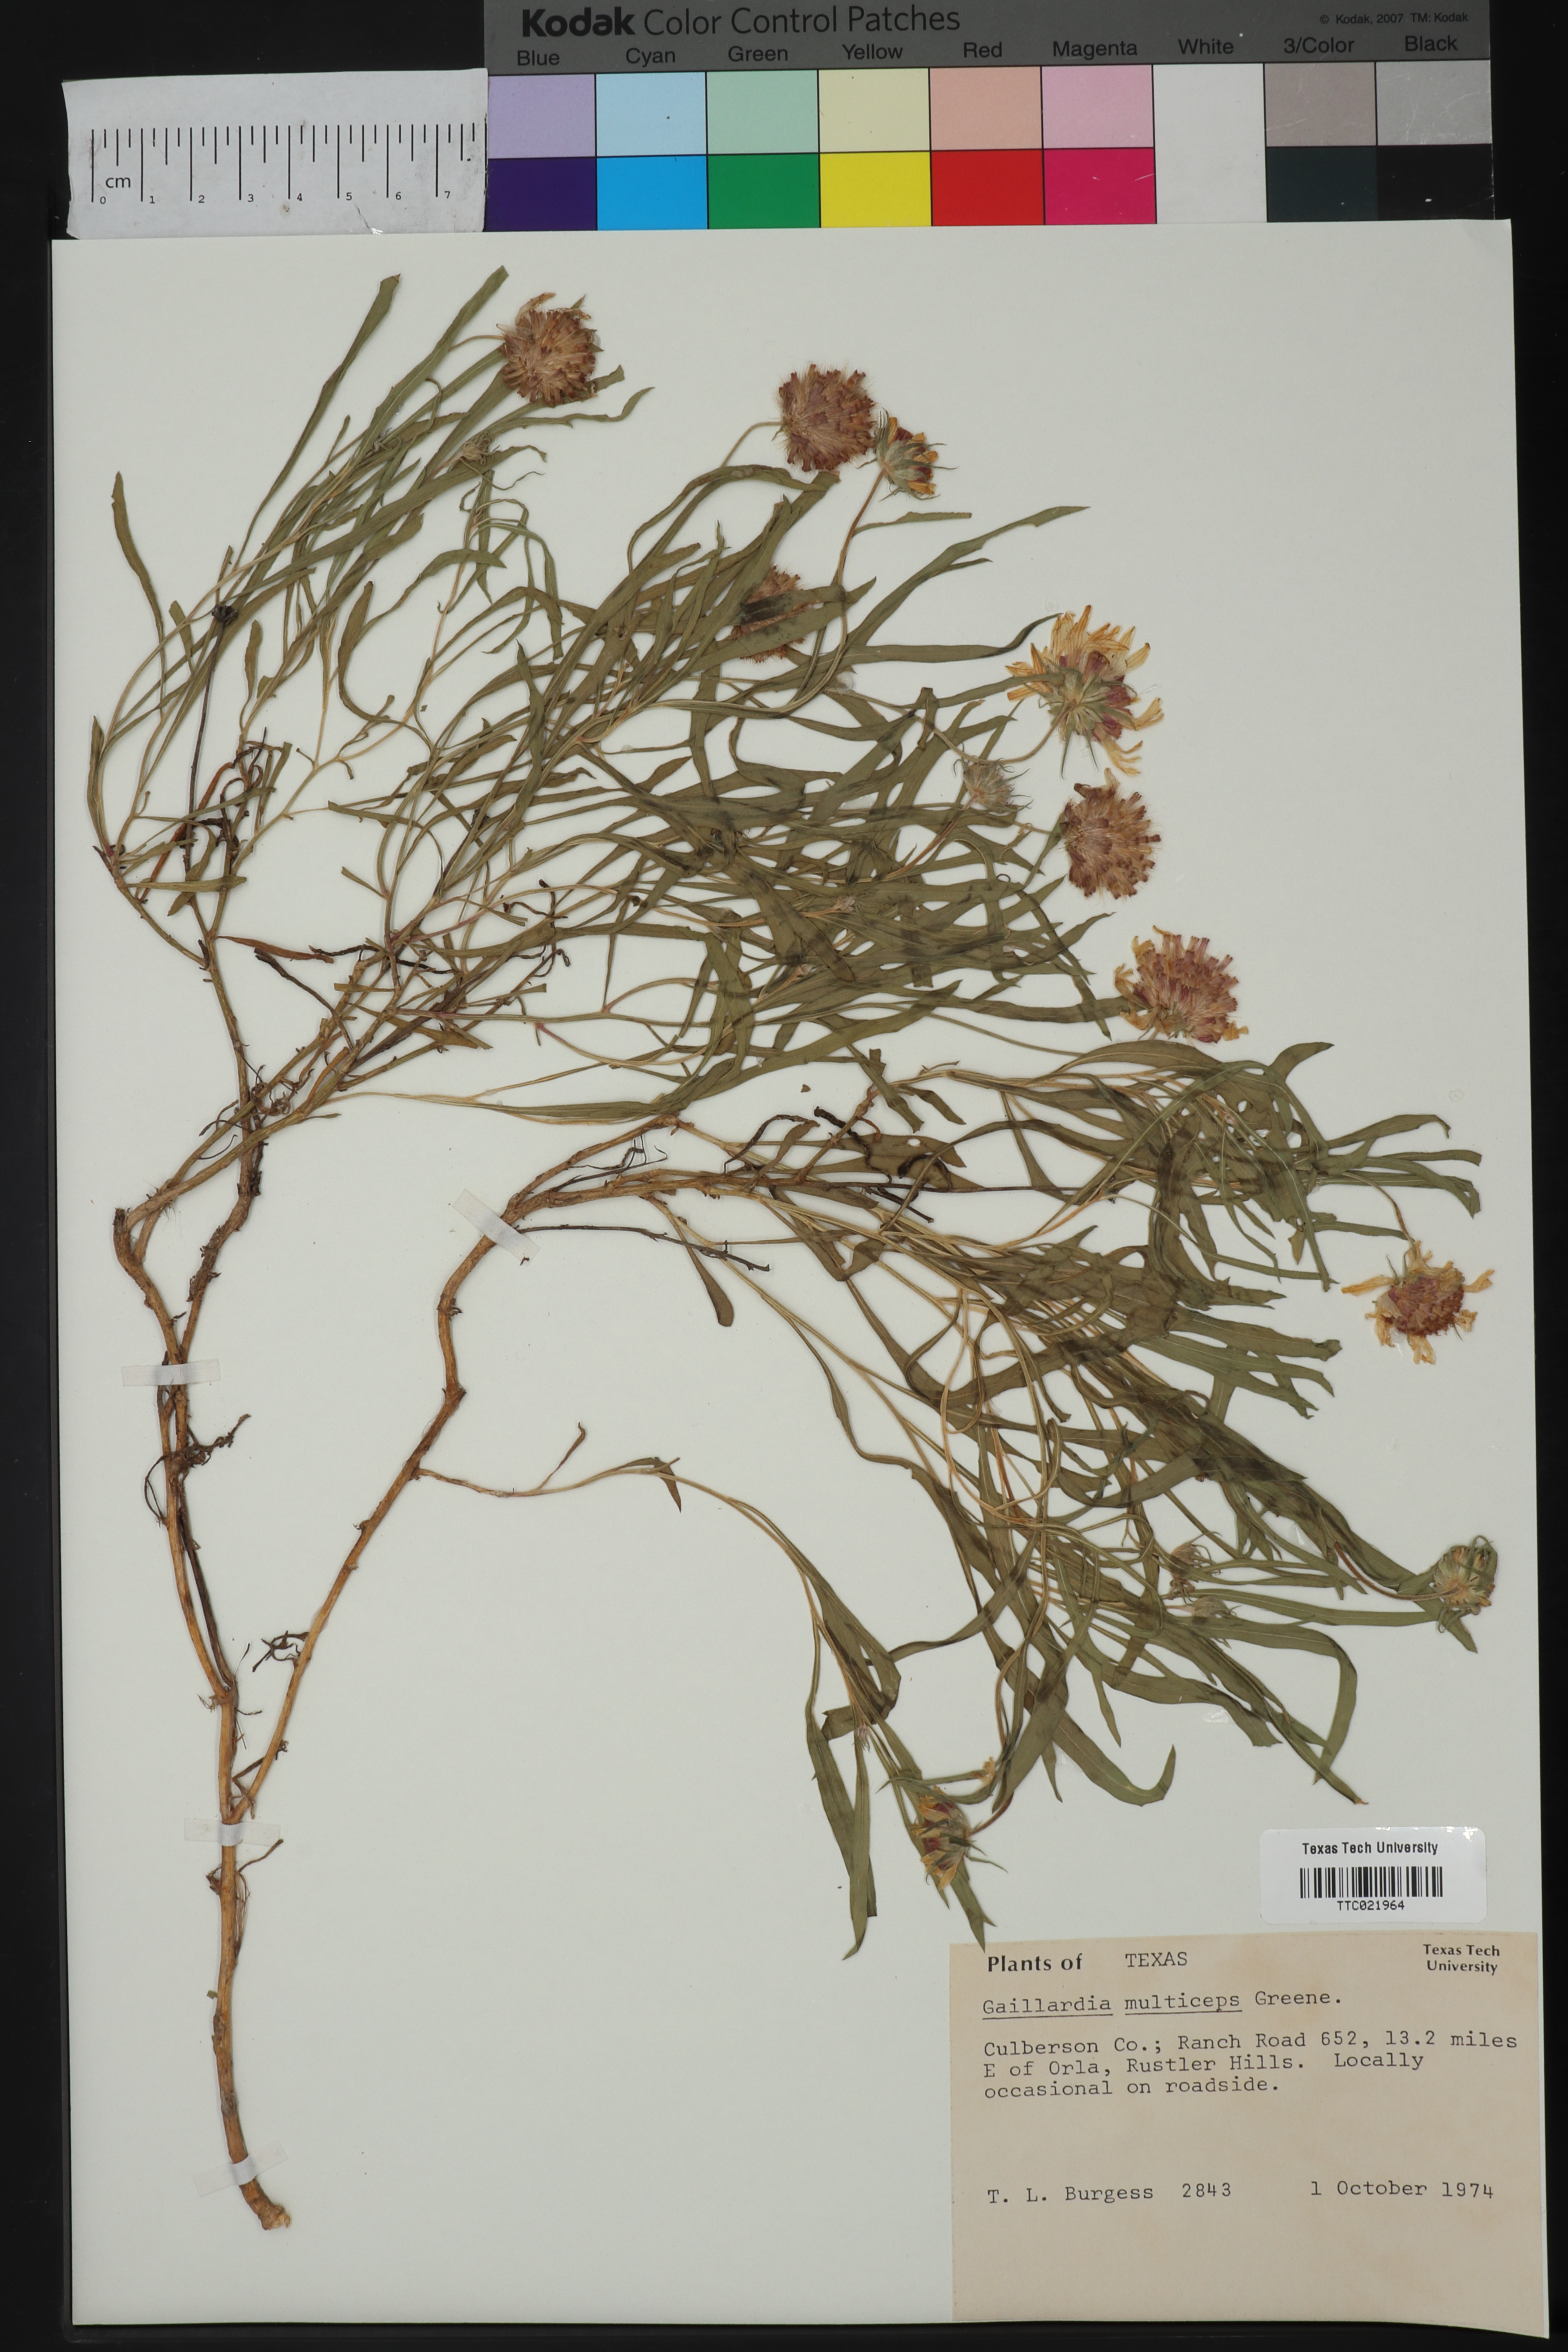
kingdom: Plantae
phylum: Tracheophyta
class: Magnoliopsida
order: Asterales
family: Asteraceae
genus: Gaillardia
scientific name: Gaillardia multiceps
